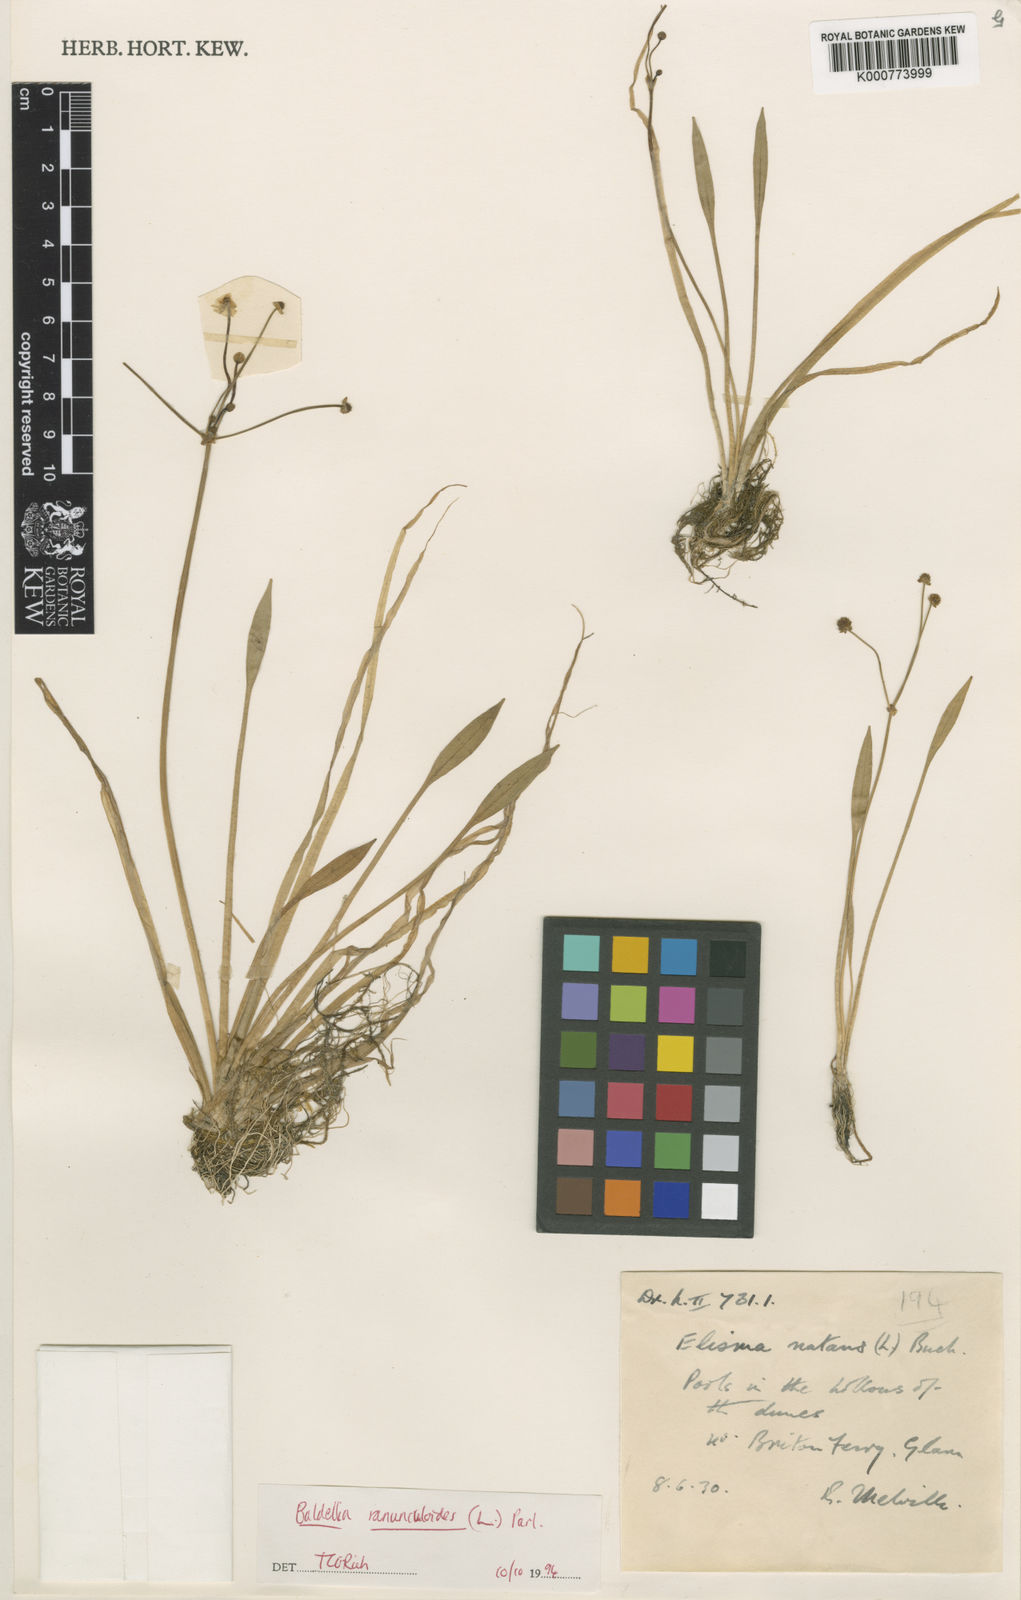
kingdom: Plantae
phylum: Tracheophyta
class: Liliopsida
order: Alismatales
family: Alismataceae
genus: Baldellia
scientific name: Baldellia ranunculoides
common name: Lesser water-plantain
